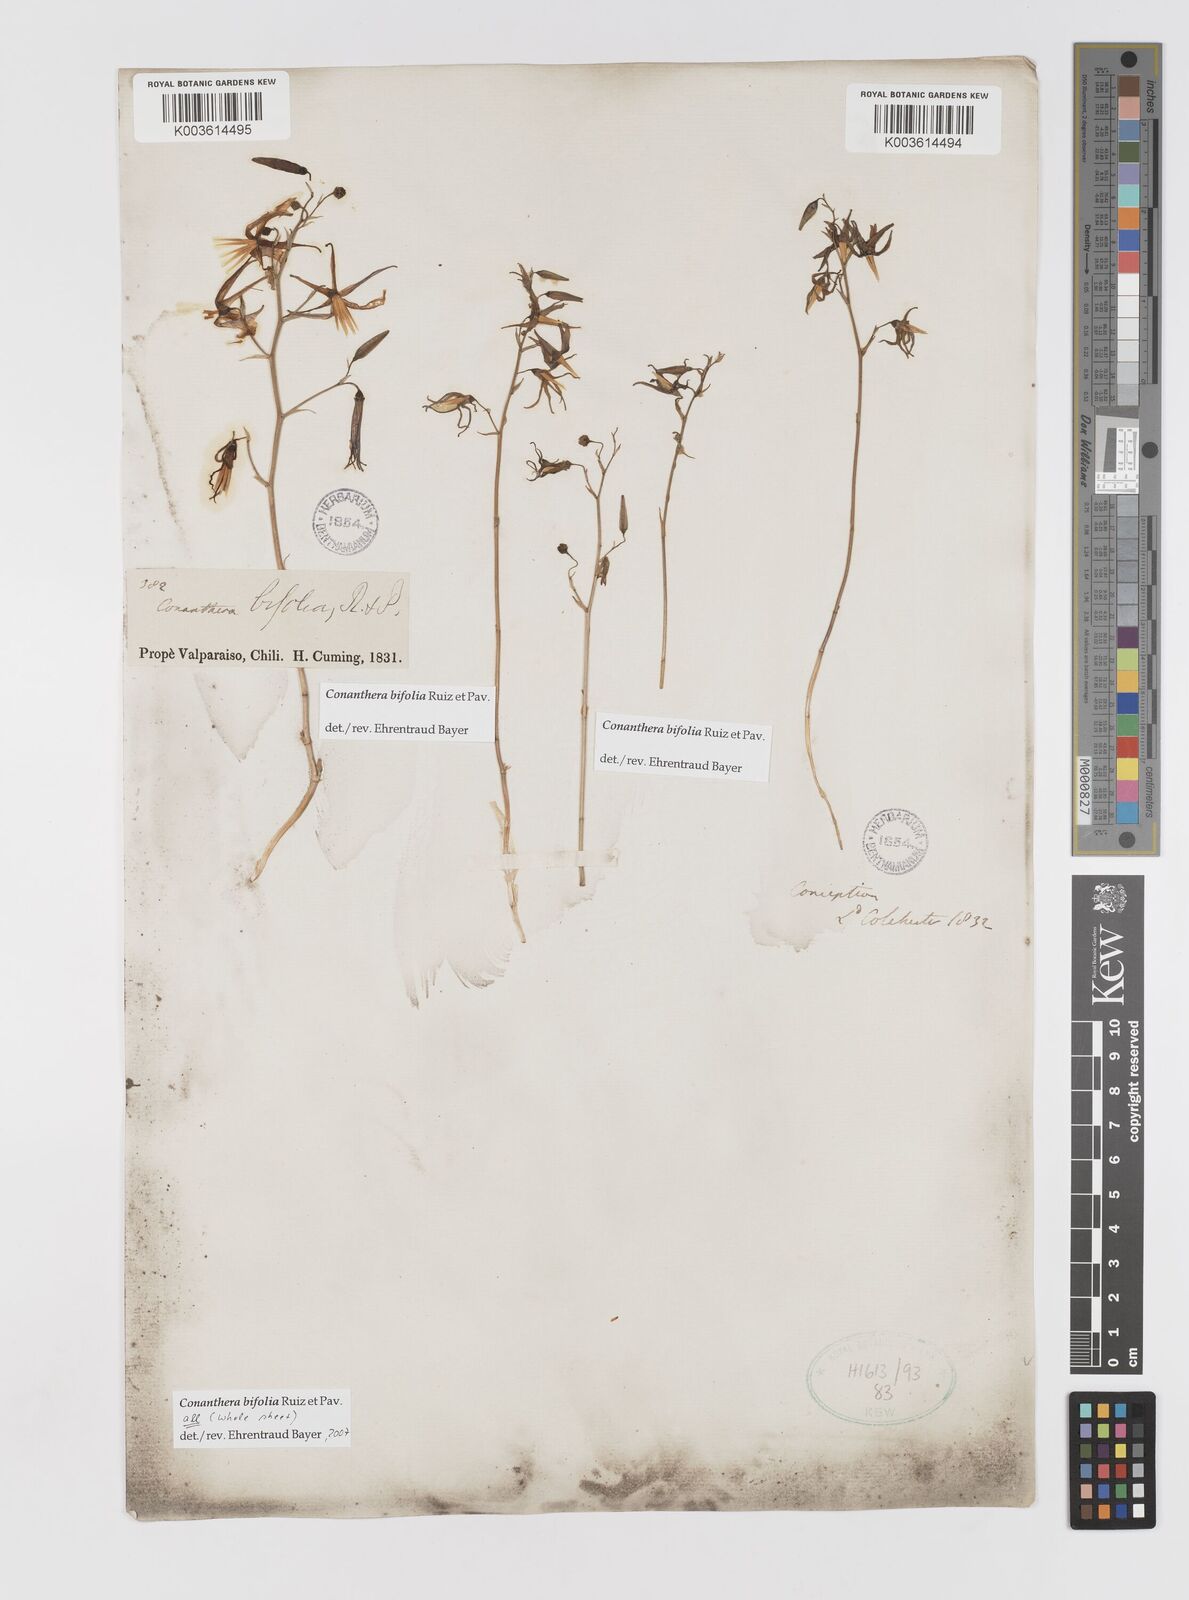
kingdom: Plantae
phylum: Tracheophyta
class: Liliopsida
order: Asparagales
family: Tecophilaeaceae
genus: Conanthera
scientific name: Conanthera bifolia
